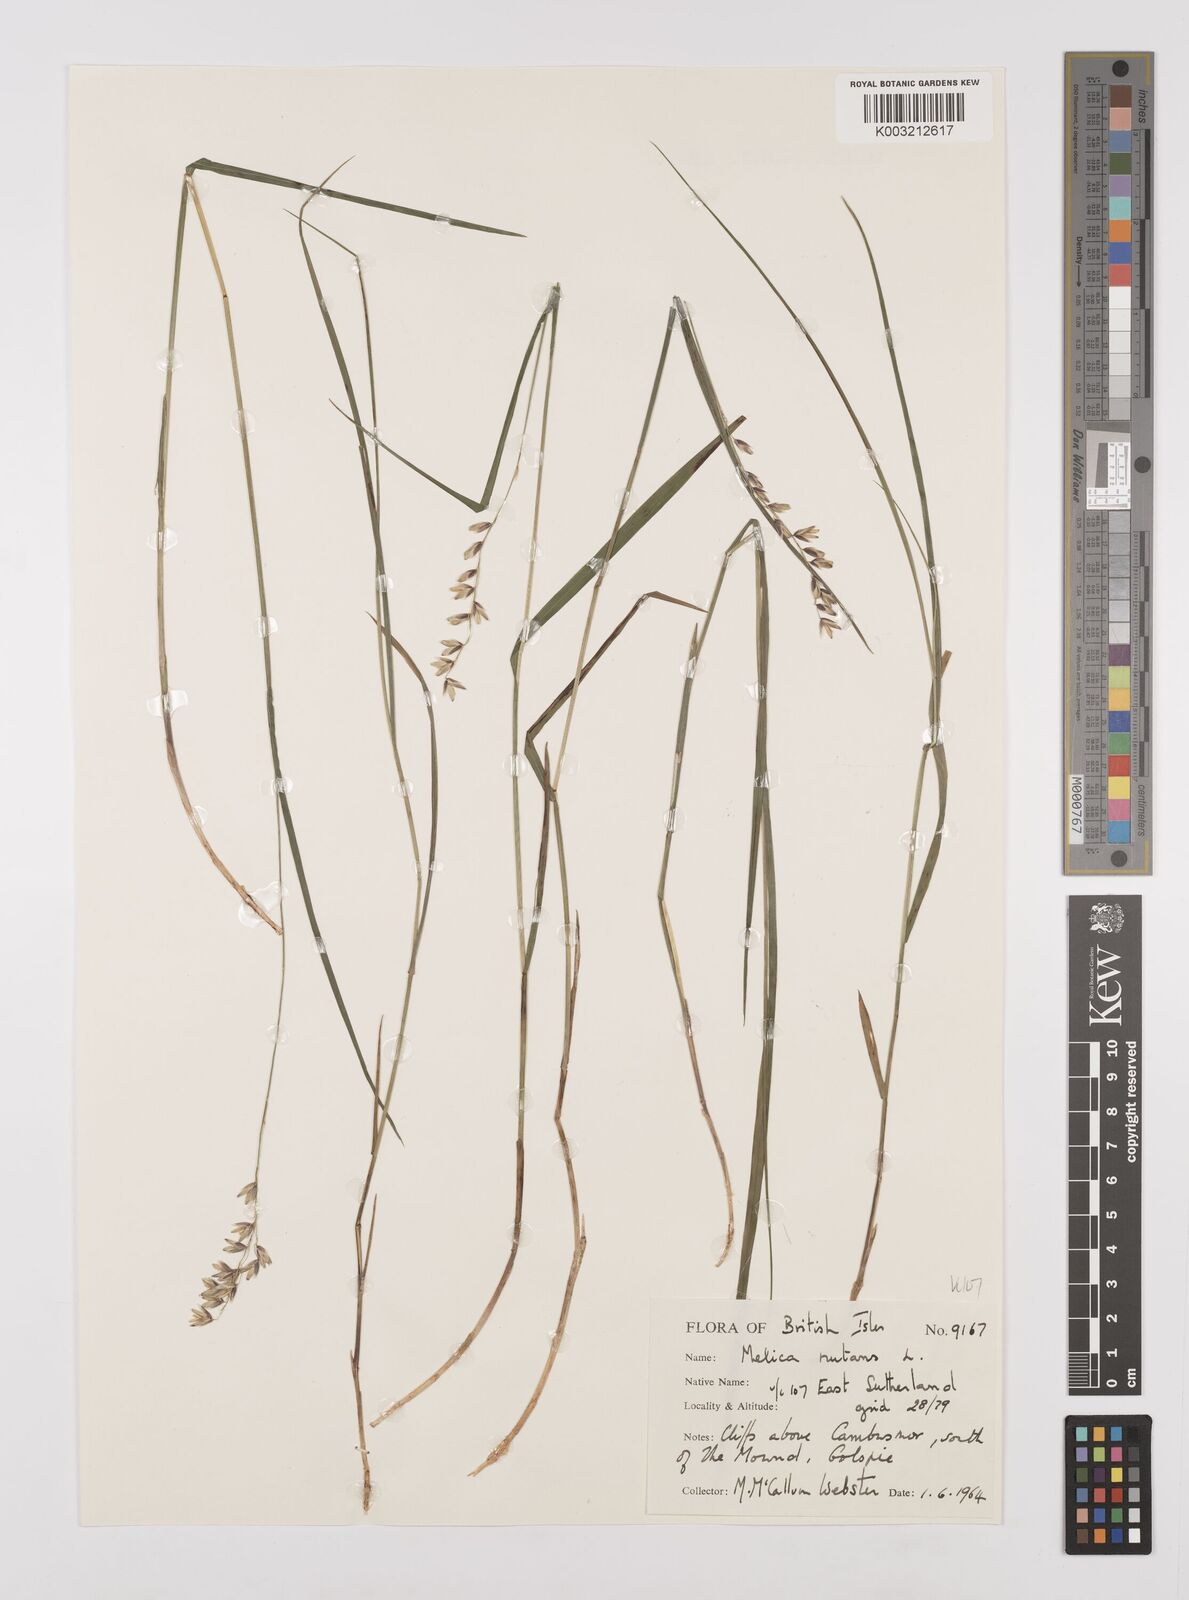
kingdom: Plantae
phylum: Tracheophyta
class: Liliopsida
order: Poales
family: Poaceae
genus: Melica
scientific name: Melica
